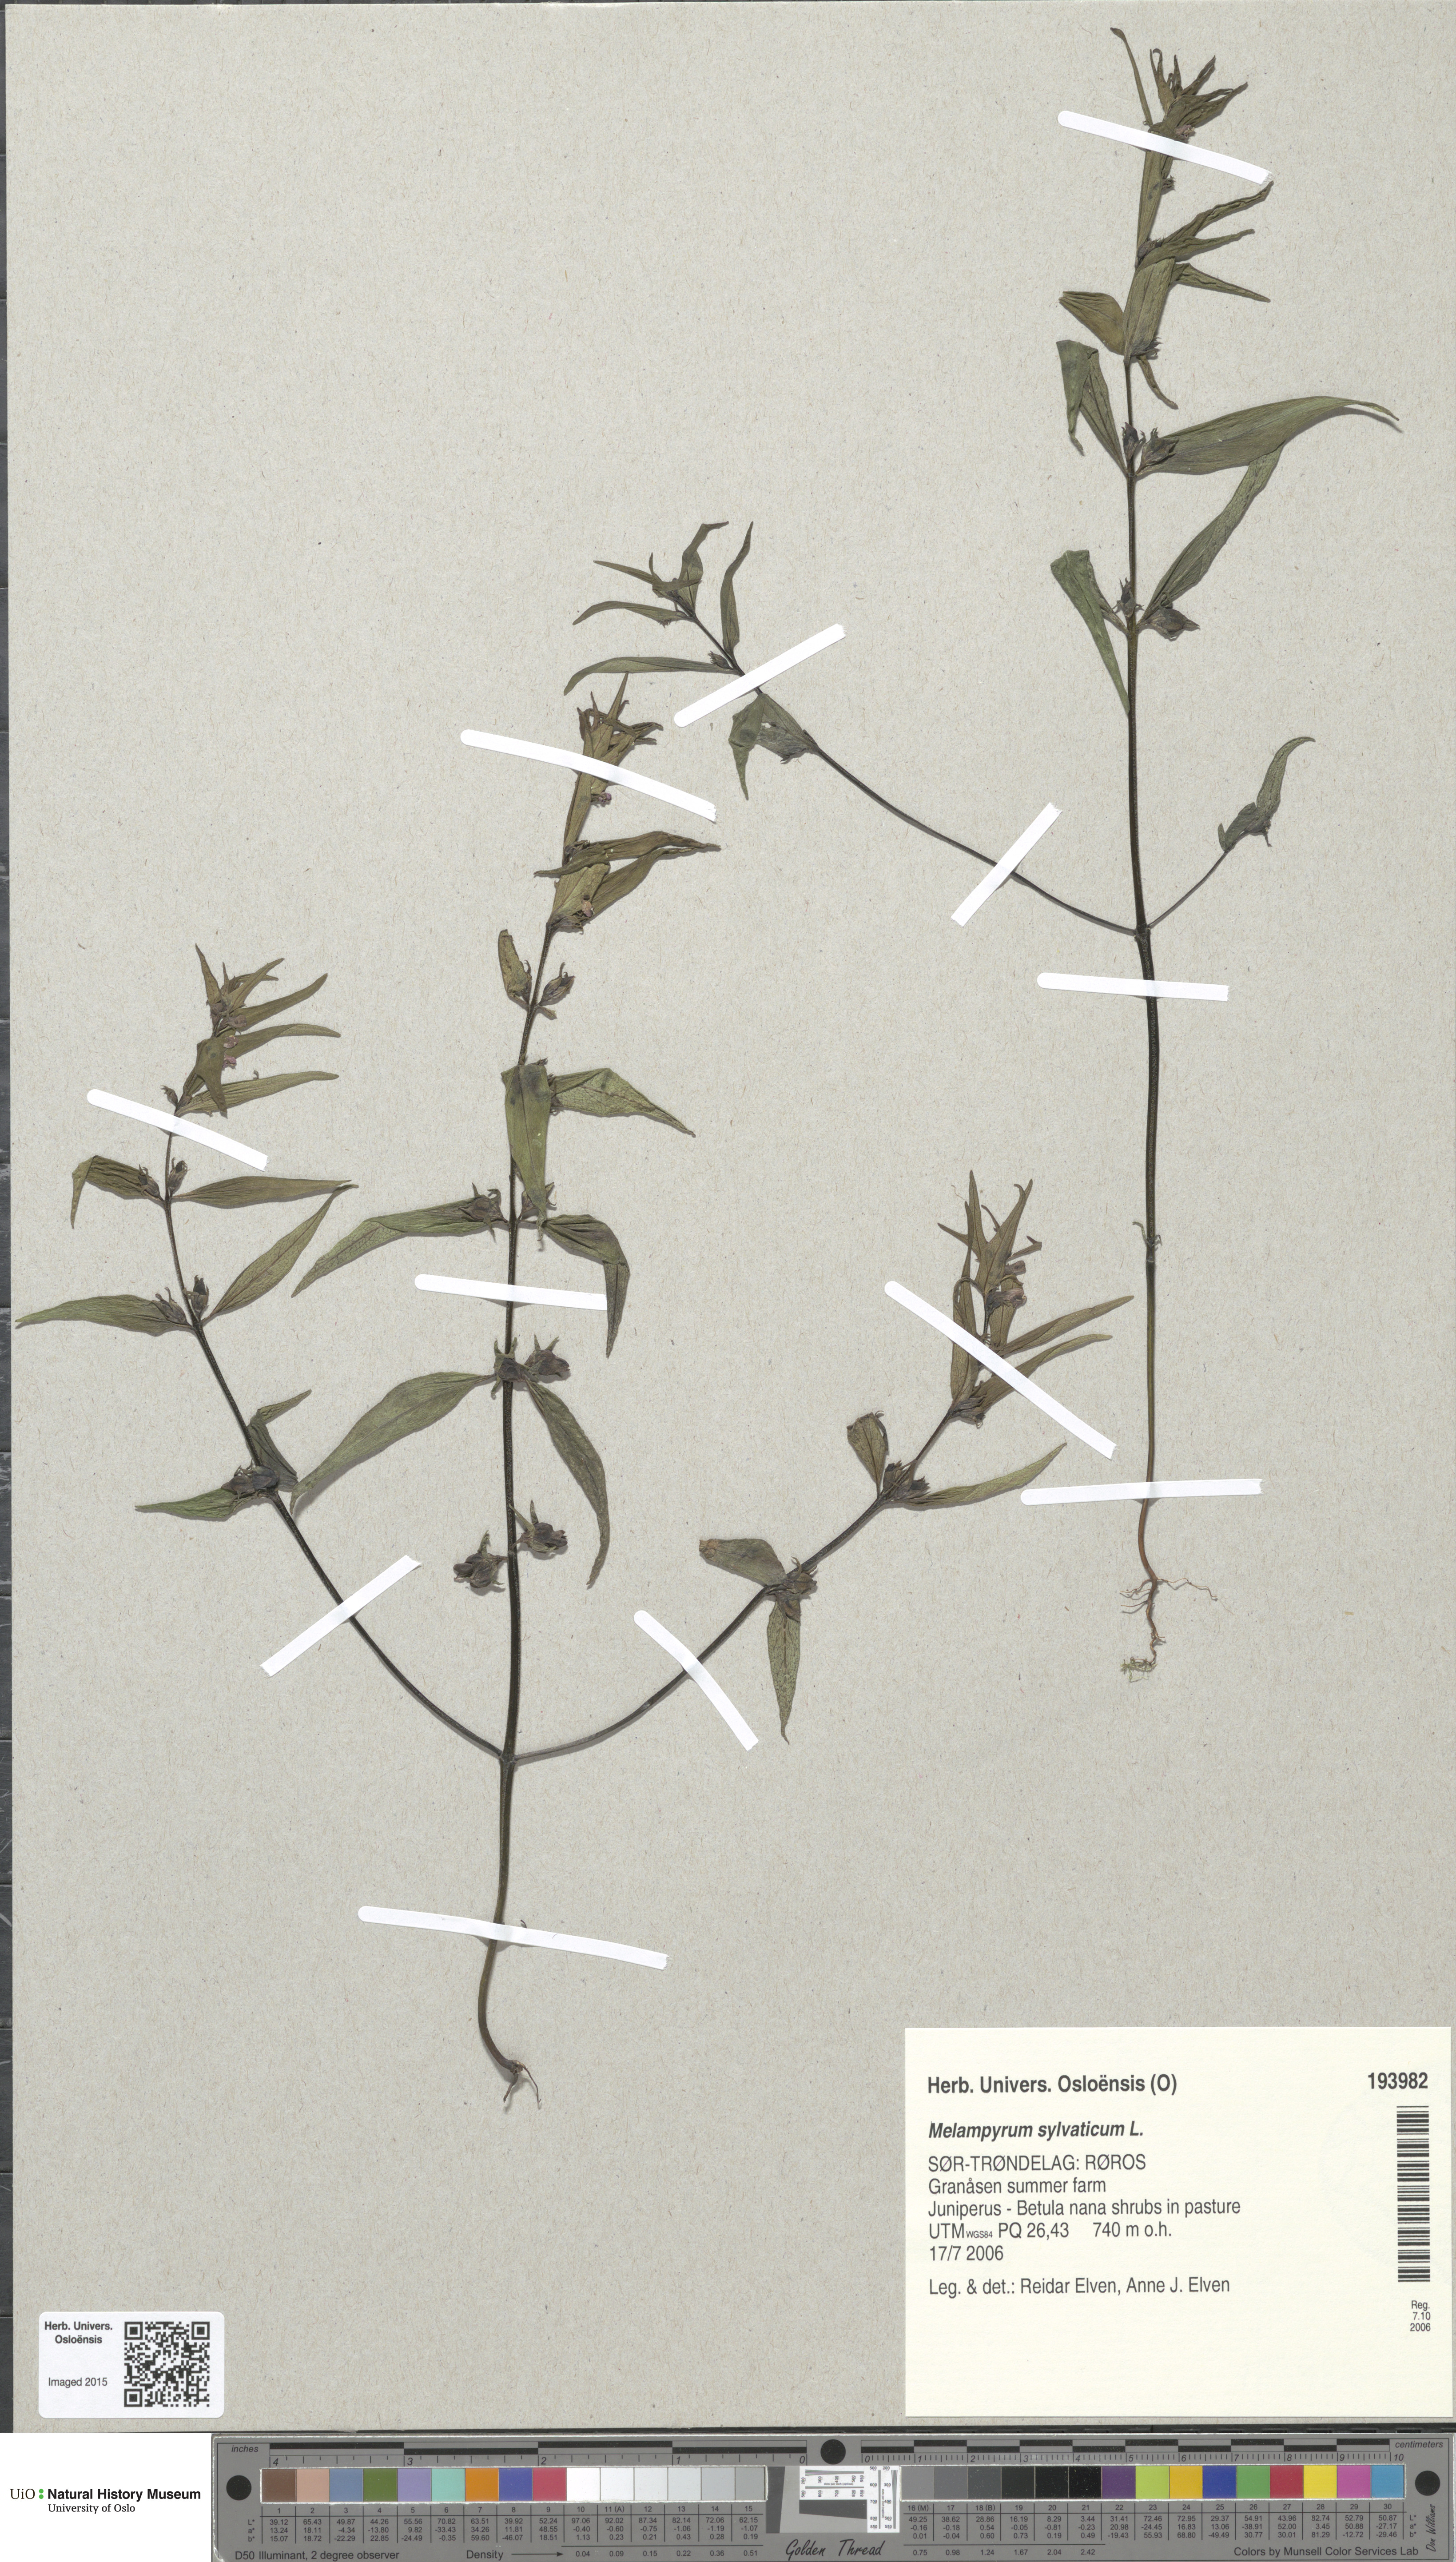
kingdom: Plantae
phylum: Tracheophyta
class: Magnoliopsida
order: Lamiales
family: Orobanchaceae
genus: Melampyrum
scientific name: Melampyrum sylvaticum
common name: Small cow-wheat
